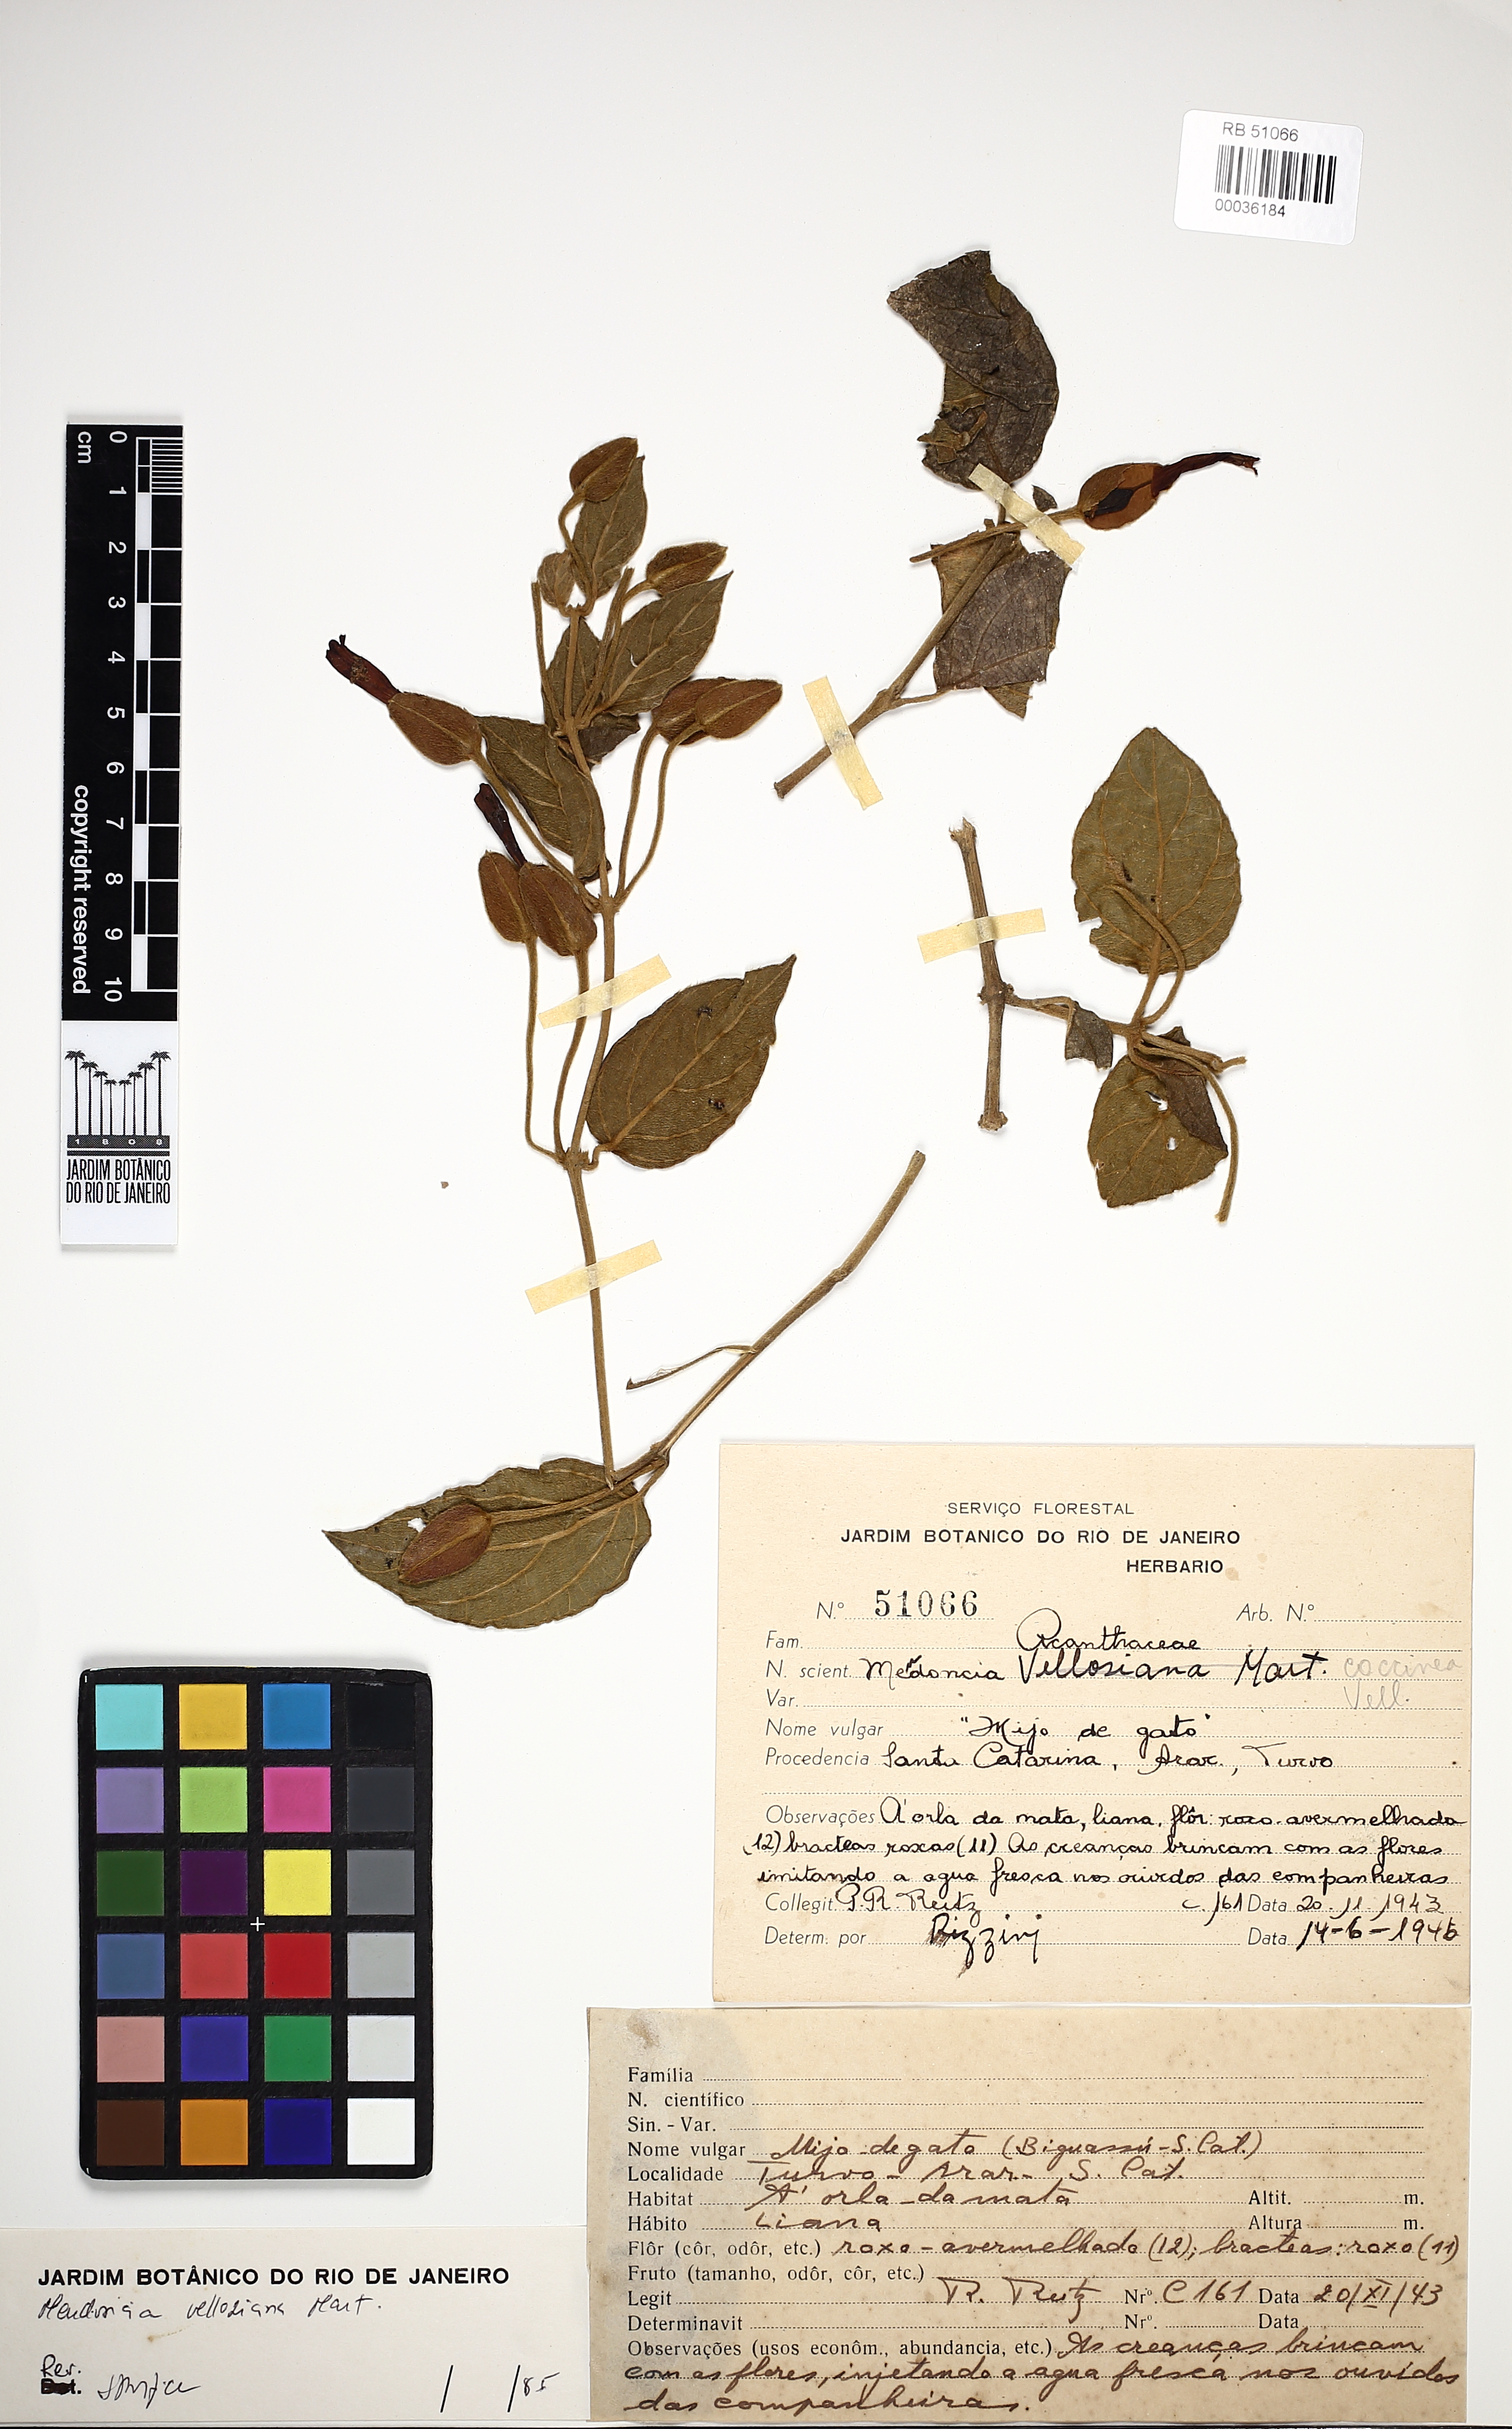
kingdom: Plantae
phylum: Tracheophyta
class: Magnoliopsida
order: Lamiales
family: Acanthaceae
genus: Mendoncia
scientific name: Mendoncia velloziana
